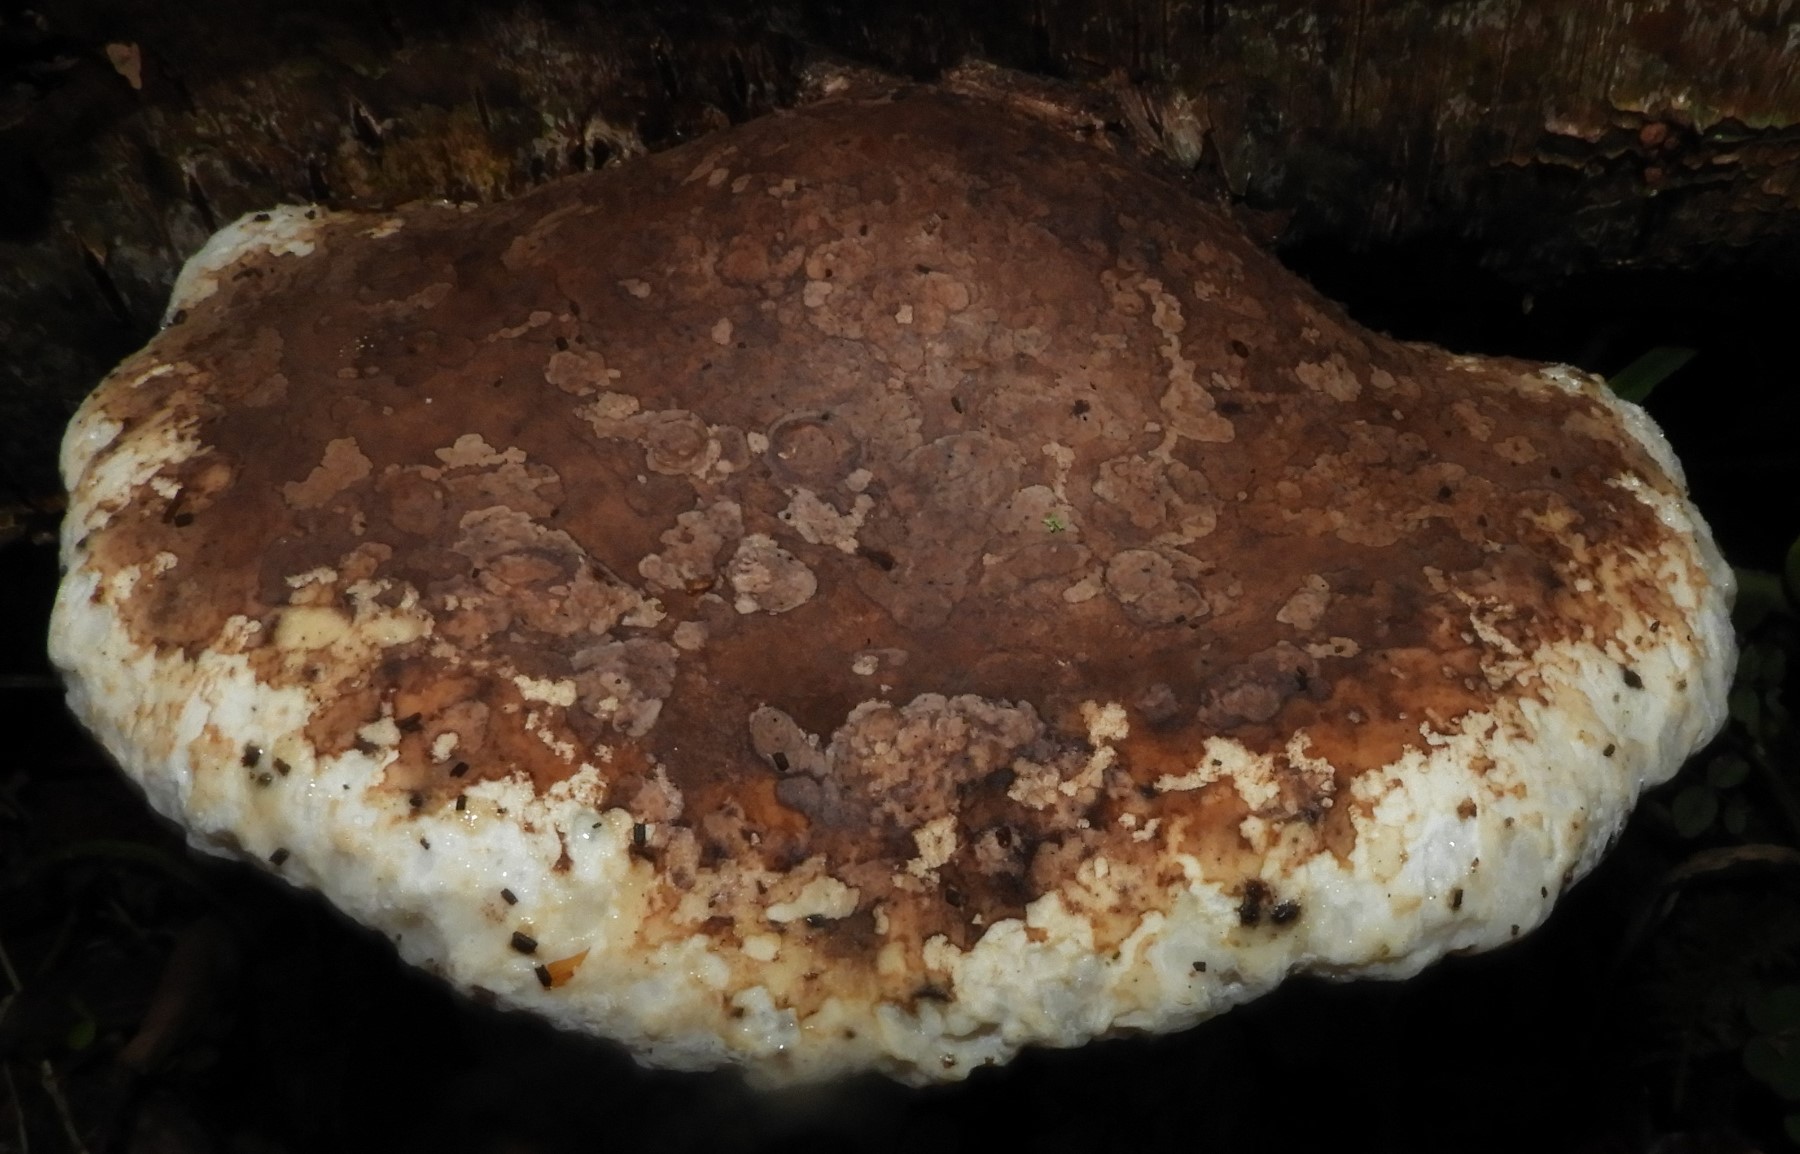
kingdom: Fungi
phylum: Basidiomycota
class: Agaricomycetes
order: Polyporales
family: Fomitopsidaceae
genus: Fomitopsis
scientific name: Fomitopsis betulina
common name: birkeporesvamp
